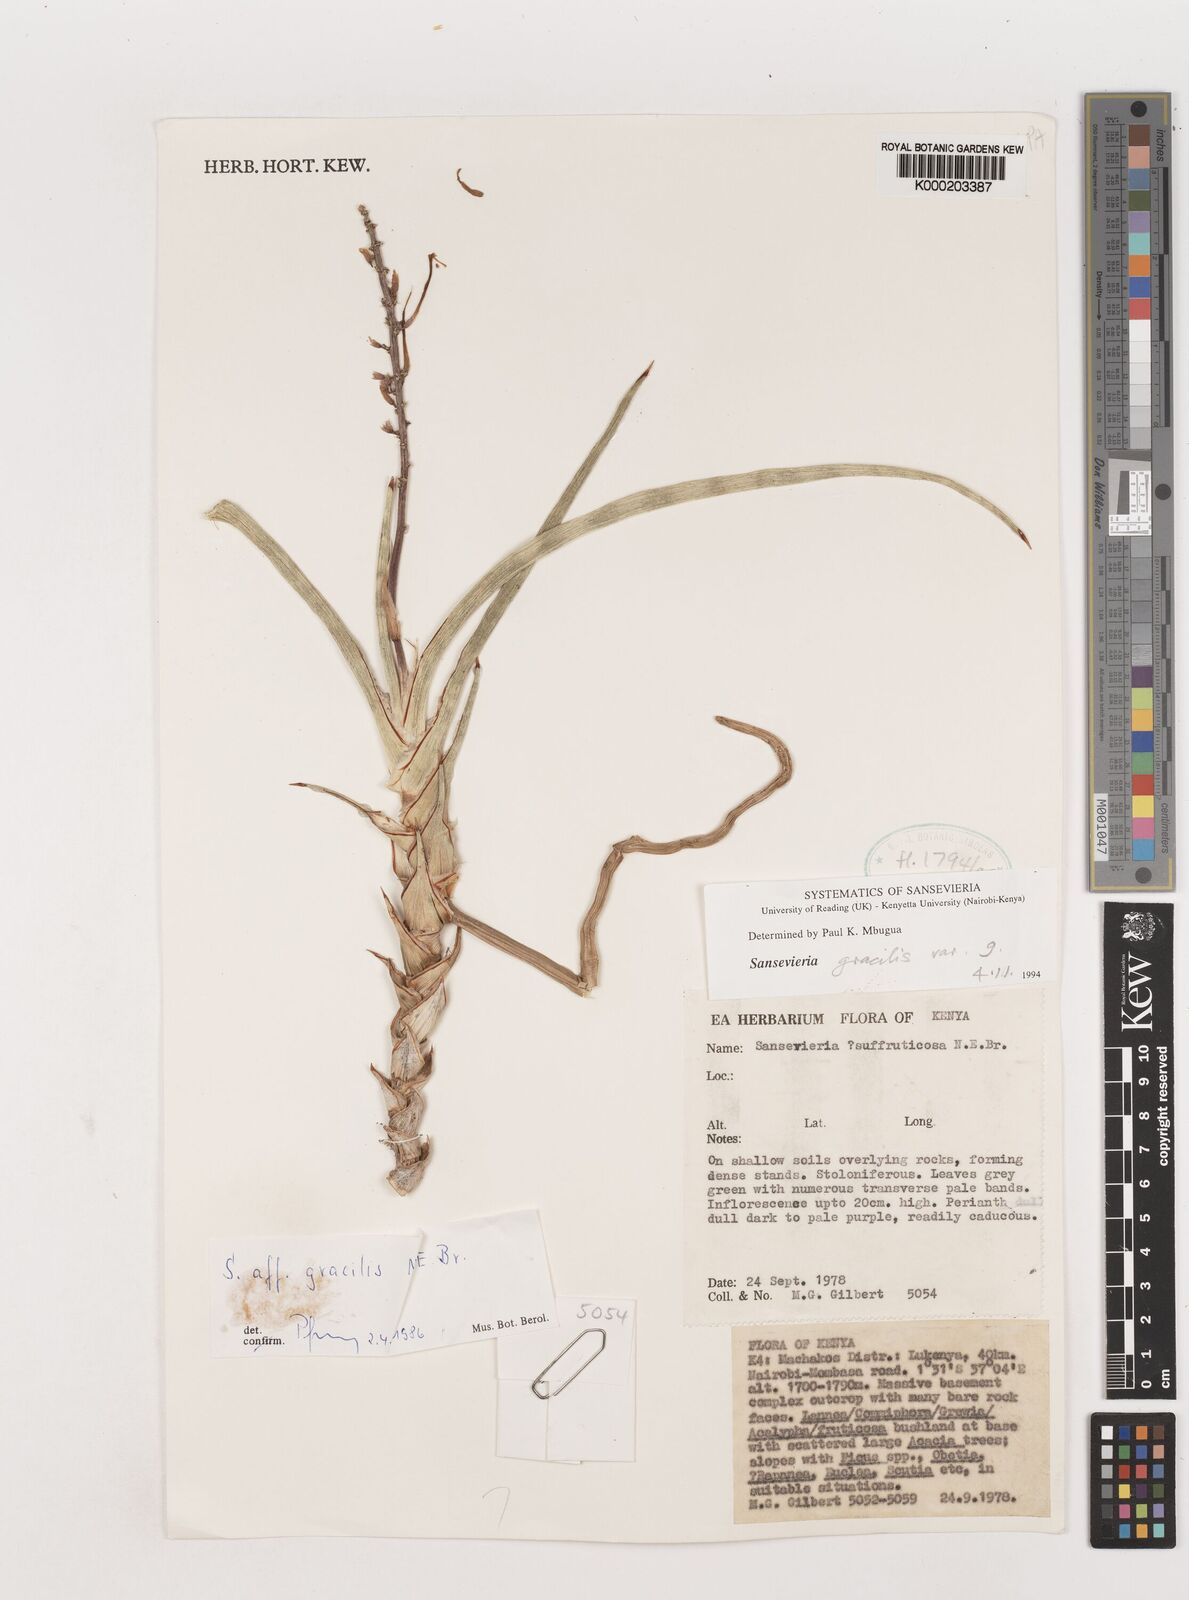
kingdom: Plantae
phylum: Tracheophyta
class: Liliopsida
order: Asparagales
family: Asparagaceae
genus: Dracaena
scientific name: Dracaena serpenta
